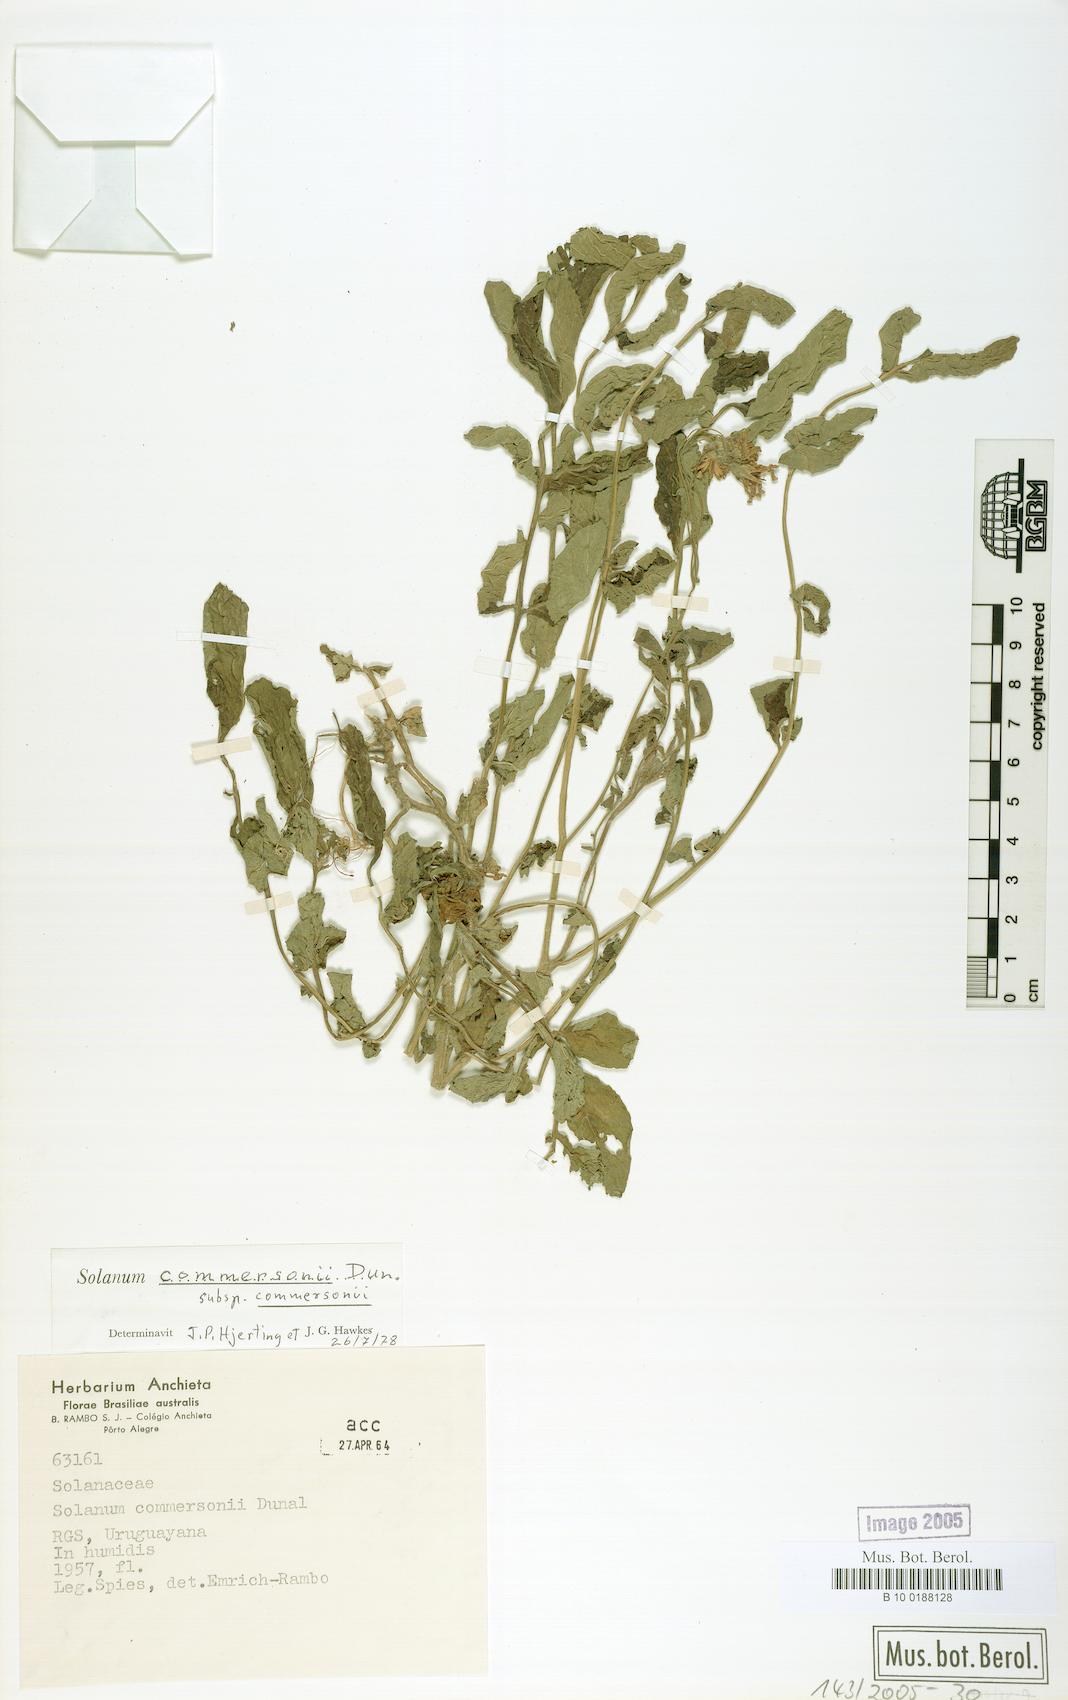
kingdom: Plantae
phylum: Tracheophyta
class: Magnoliopsida
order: Solanales
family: Solanaceae
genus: Solanum
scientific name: Solanum commersonii
